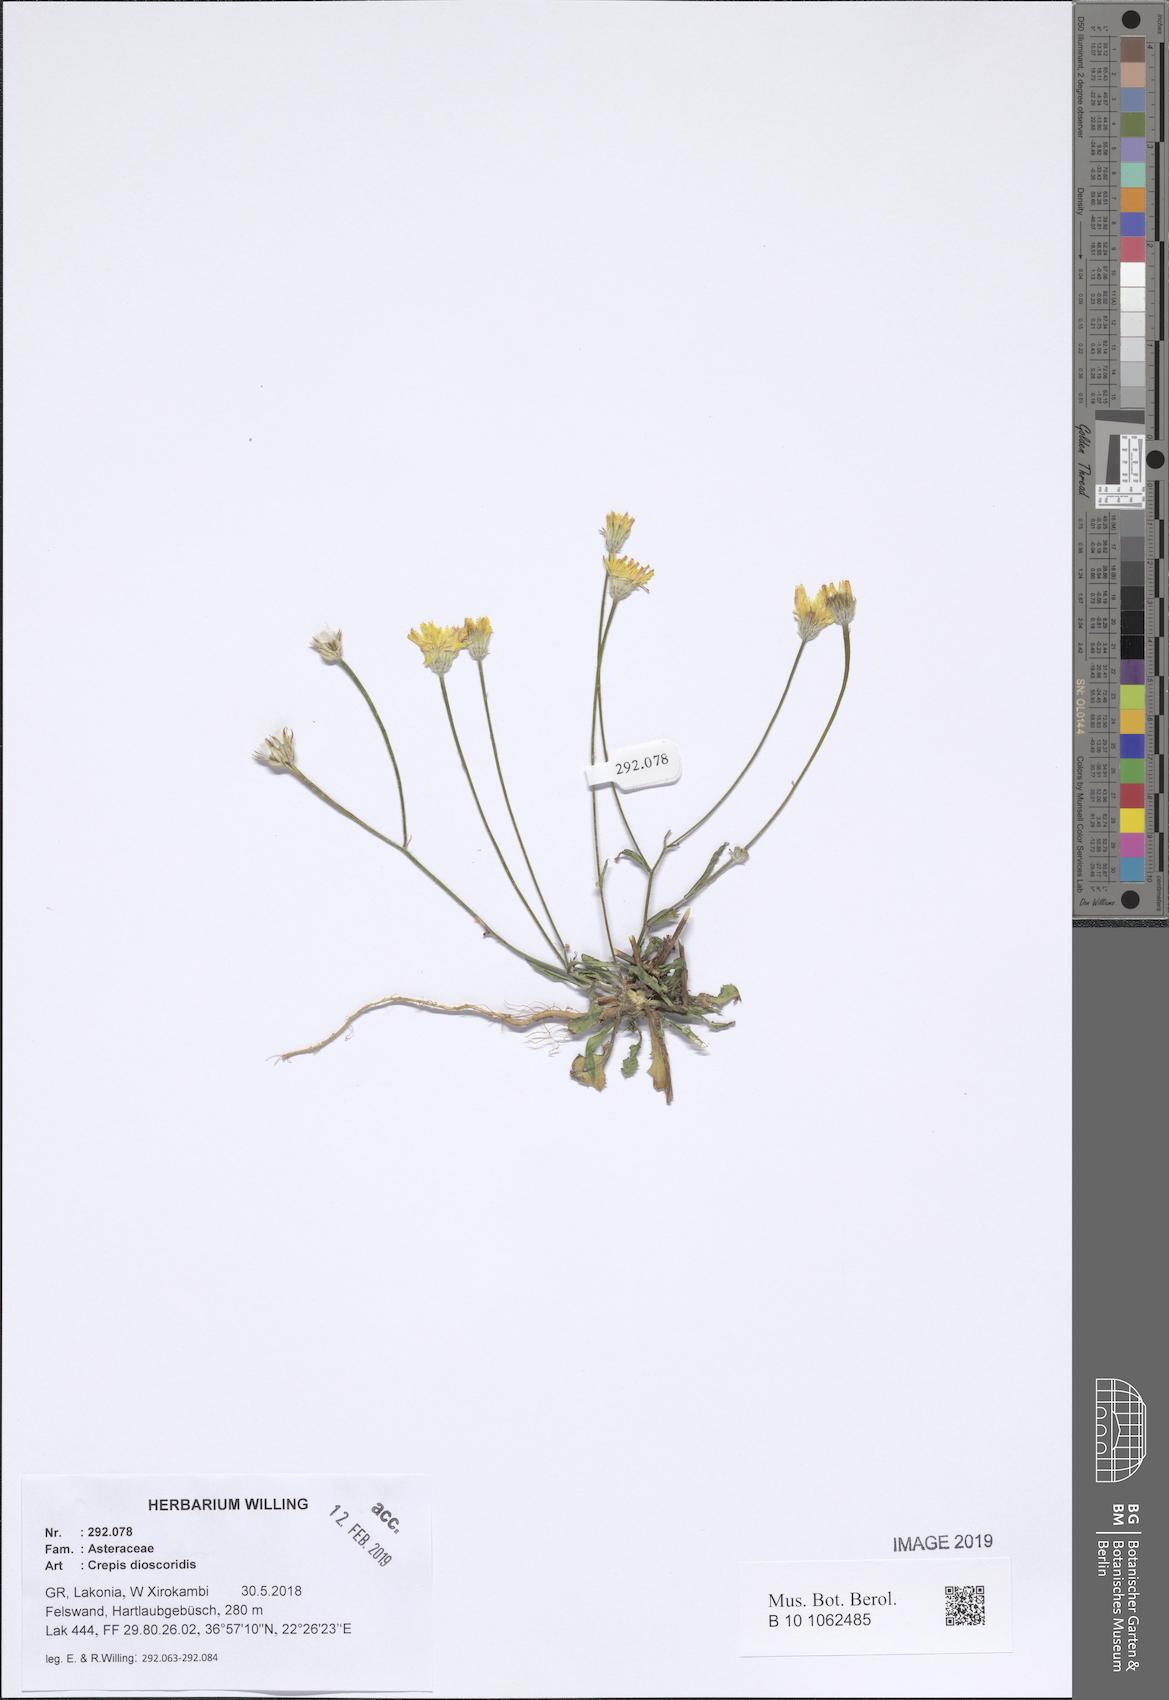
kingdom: Plantae
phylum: Tracheophyta
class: Magnoliopsida
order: Asterales
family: Asteraceae
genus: Crepis
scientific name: Crepis dioscoridis
